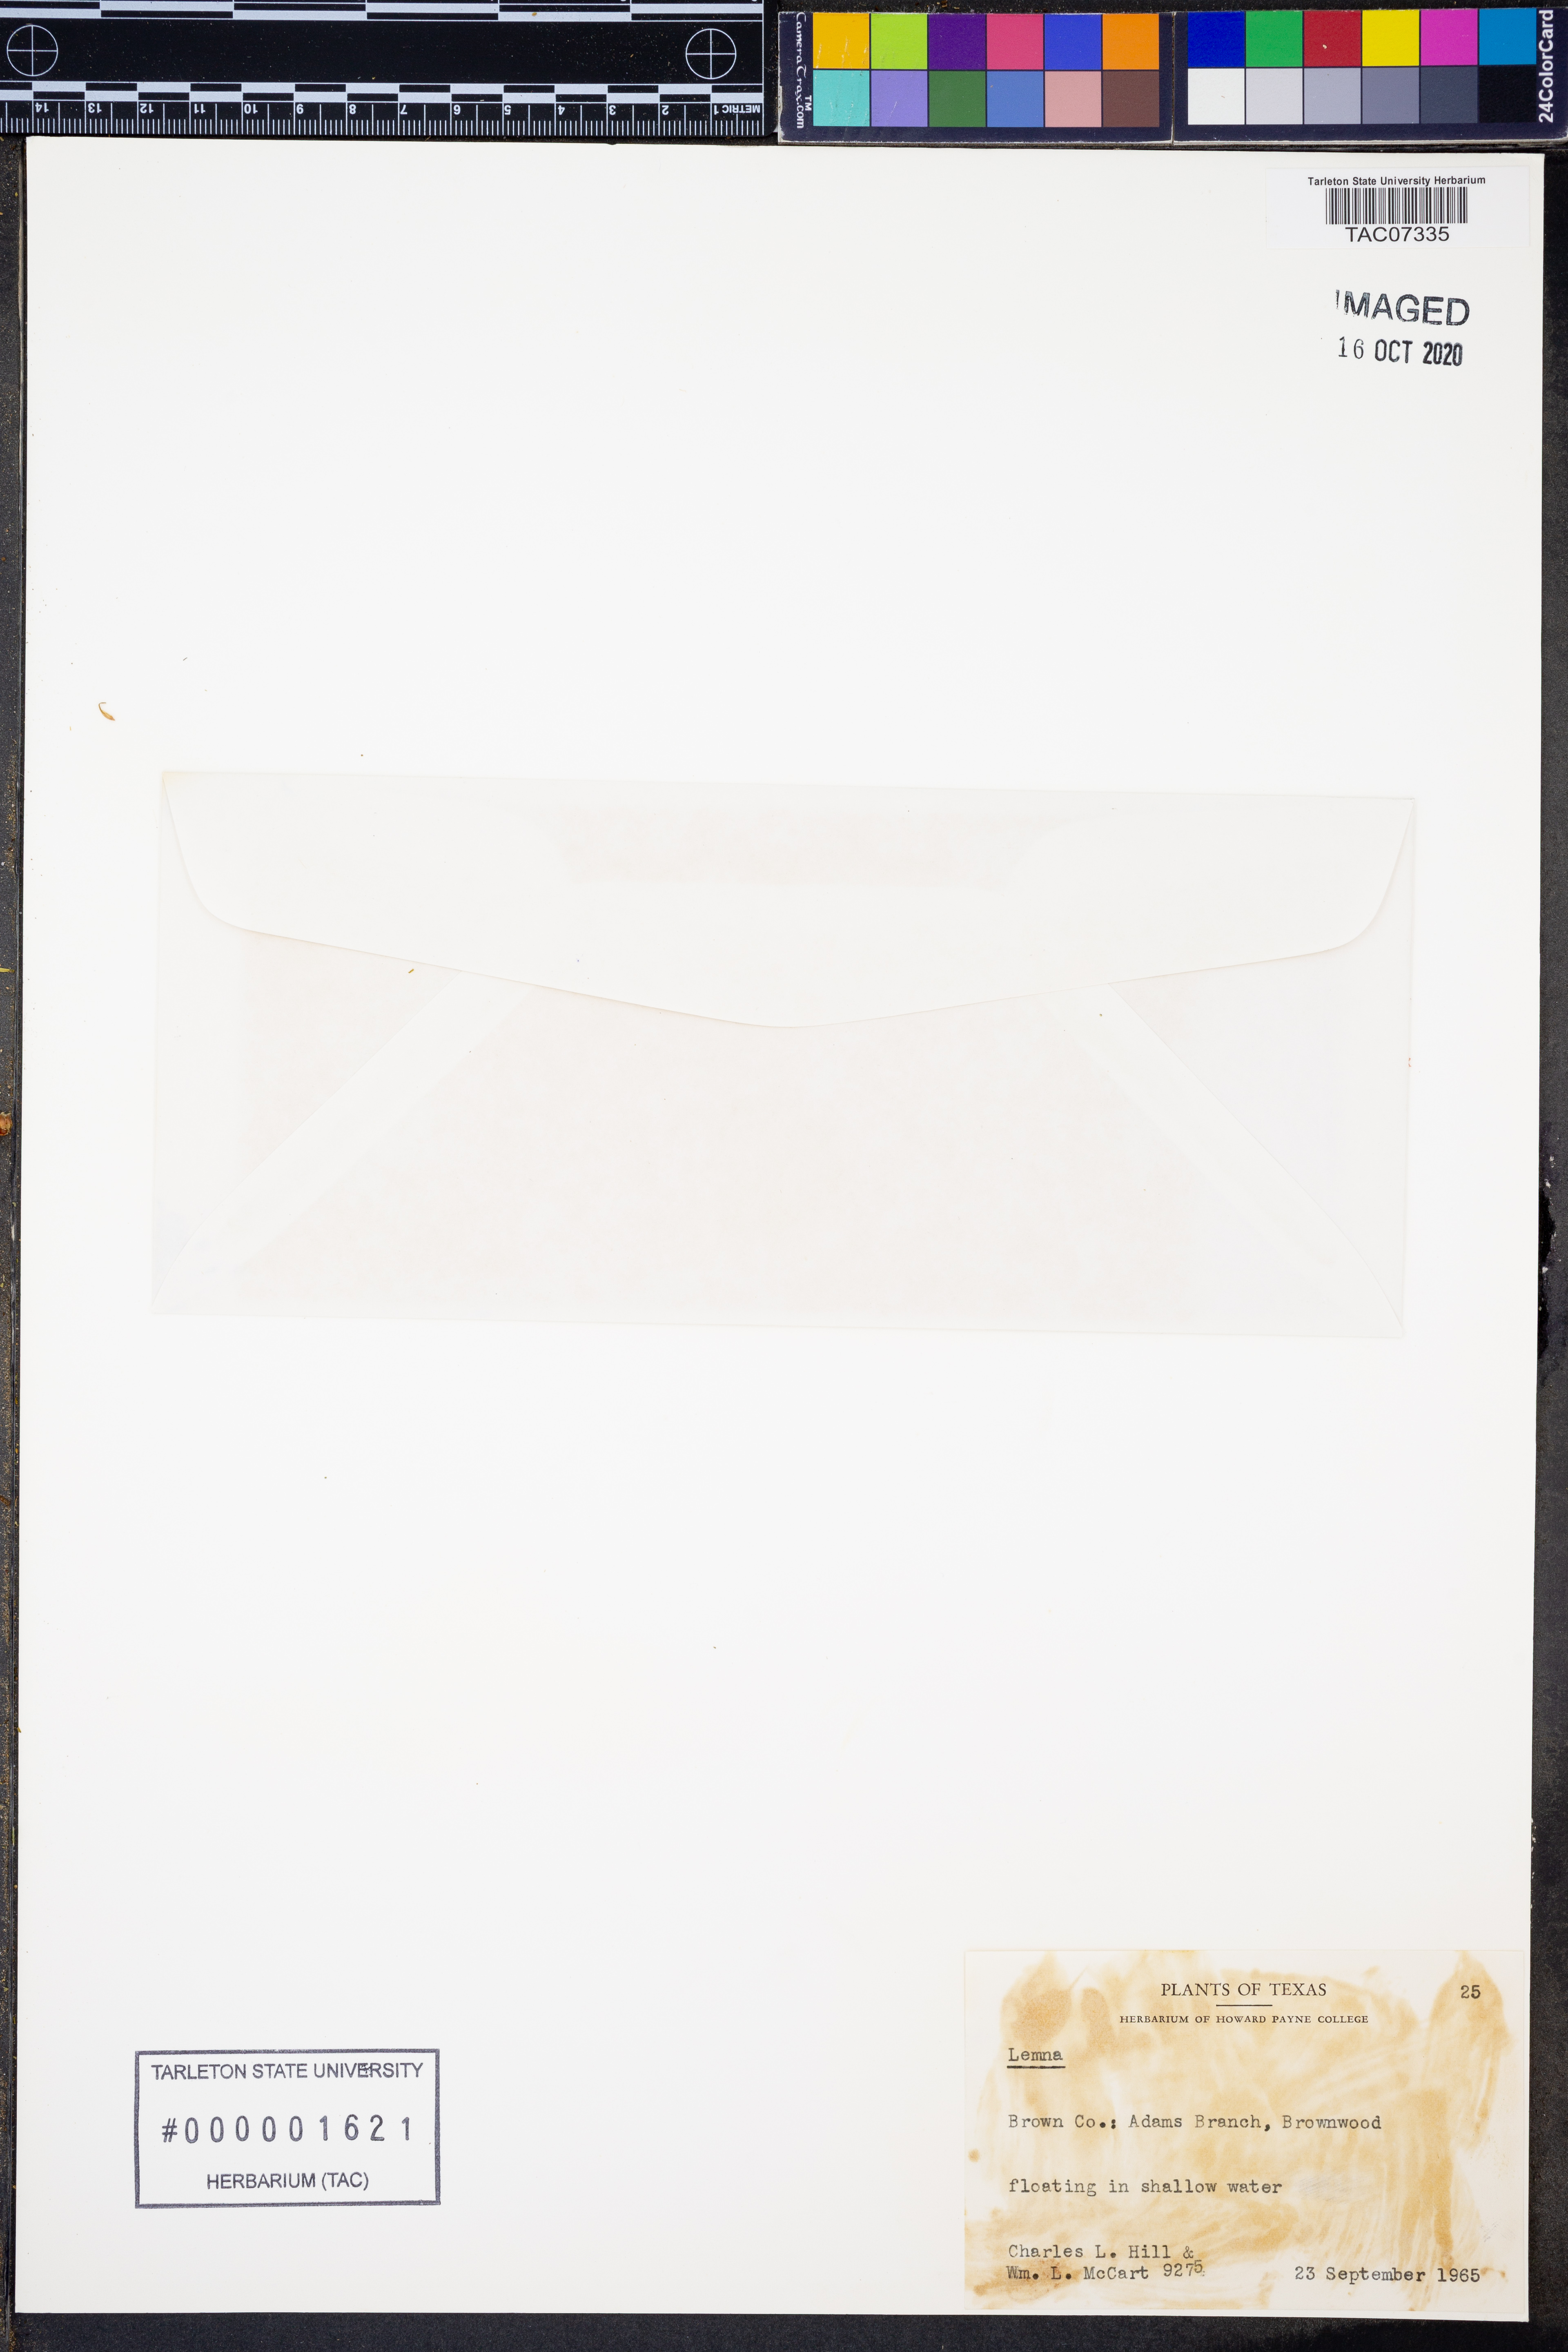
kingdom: Plantae
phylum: Tracheophyta
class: Liliopsida
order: Alismatales
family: Araceae
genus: Lemna
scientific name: Lemna
